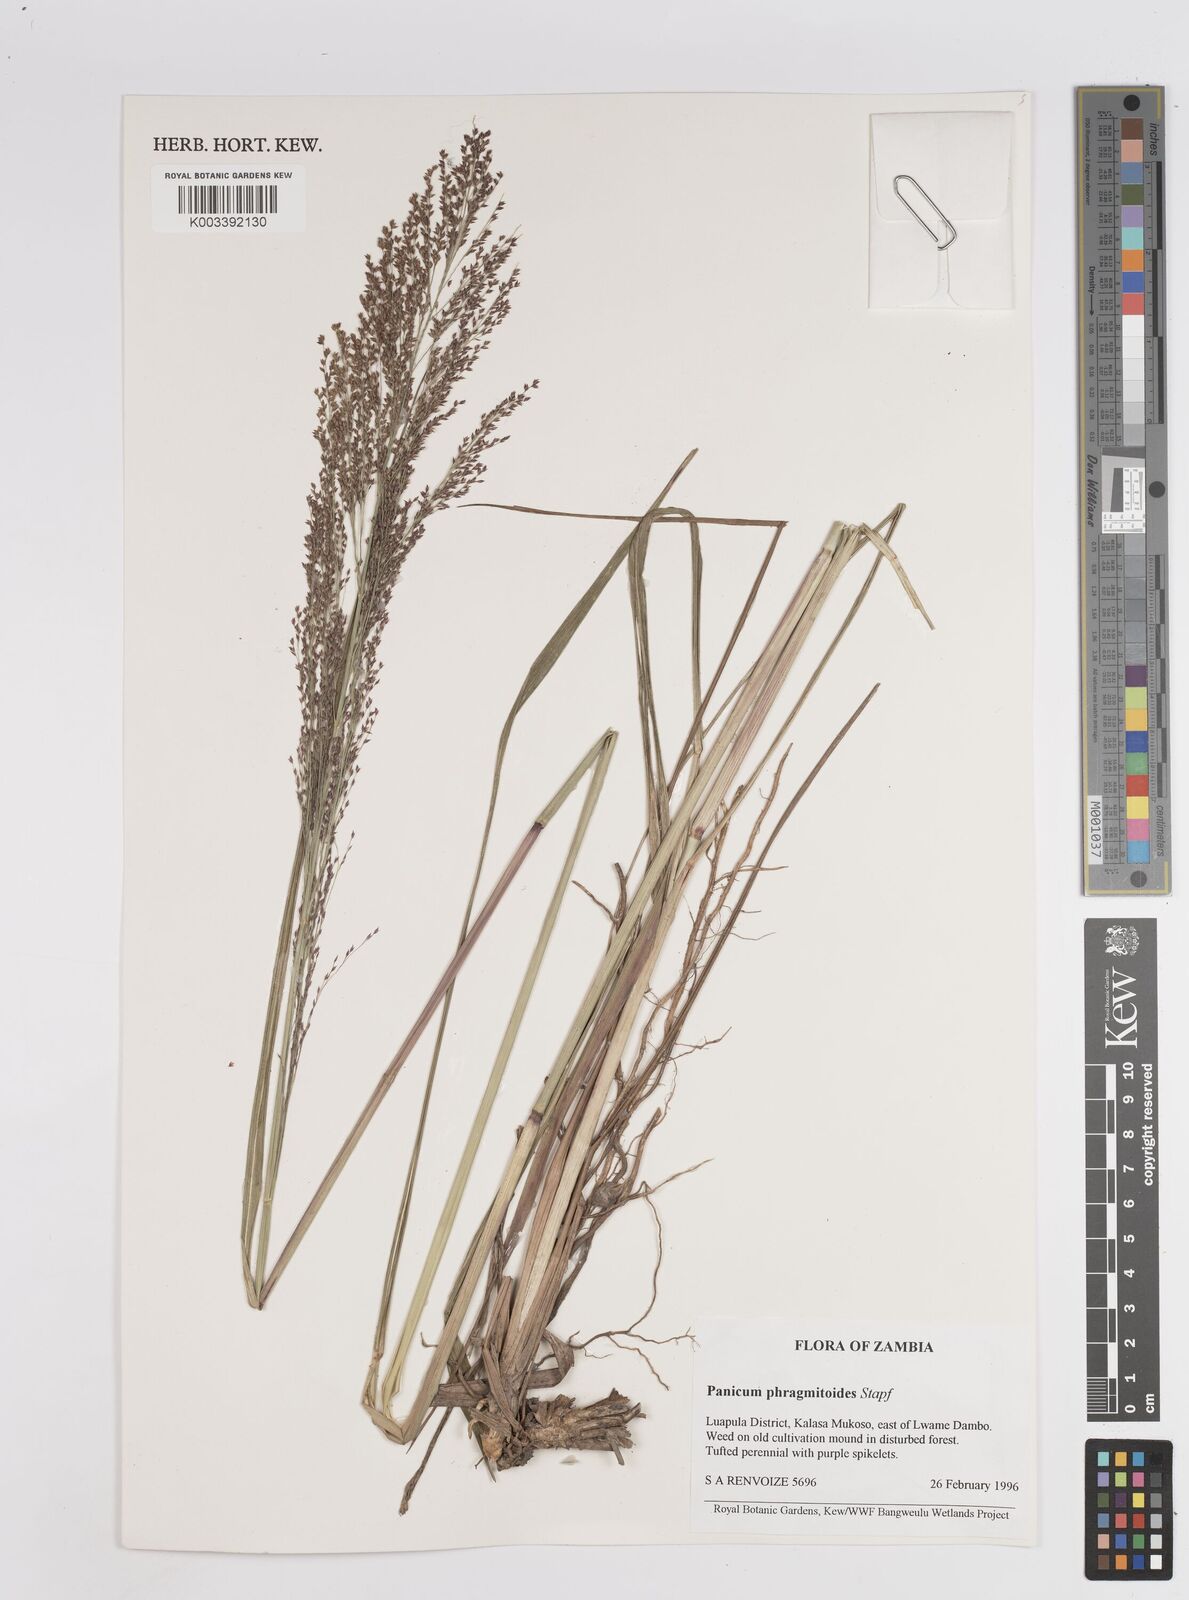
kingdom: Plantae
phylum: Tracheophyta
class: Liliopsida
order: Poales
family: Poaceae
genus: Panicum
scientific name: Panicum phragmitoides
